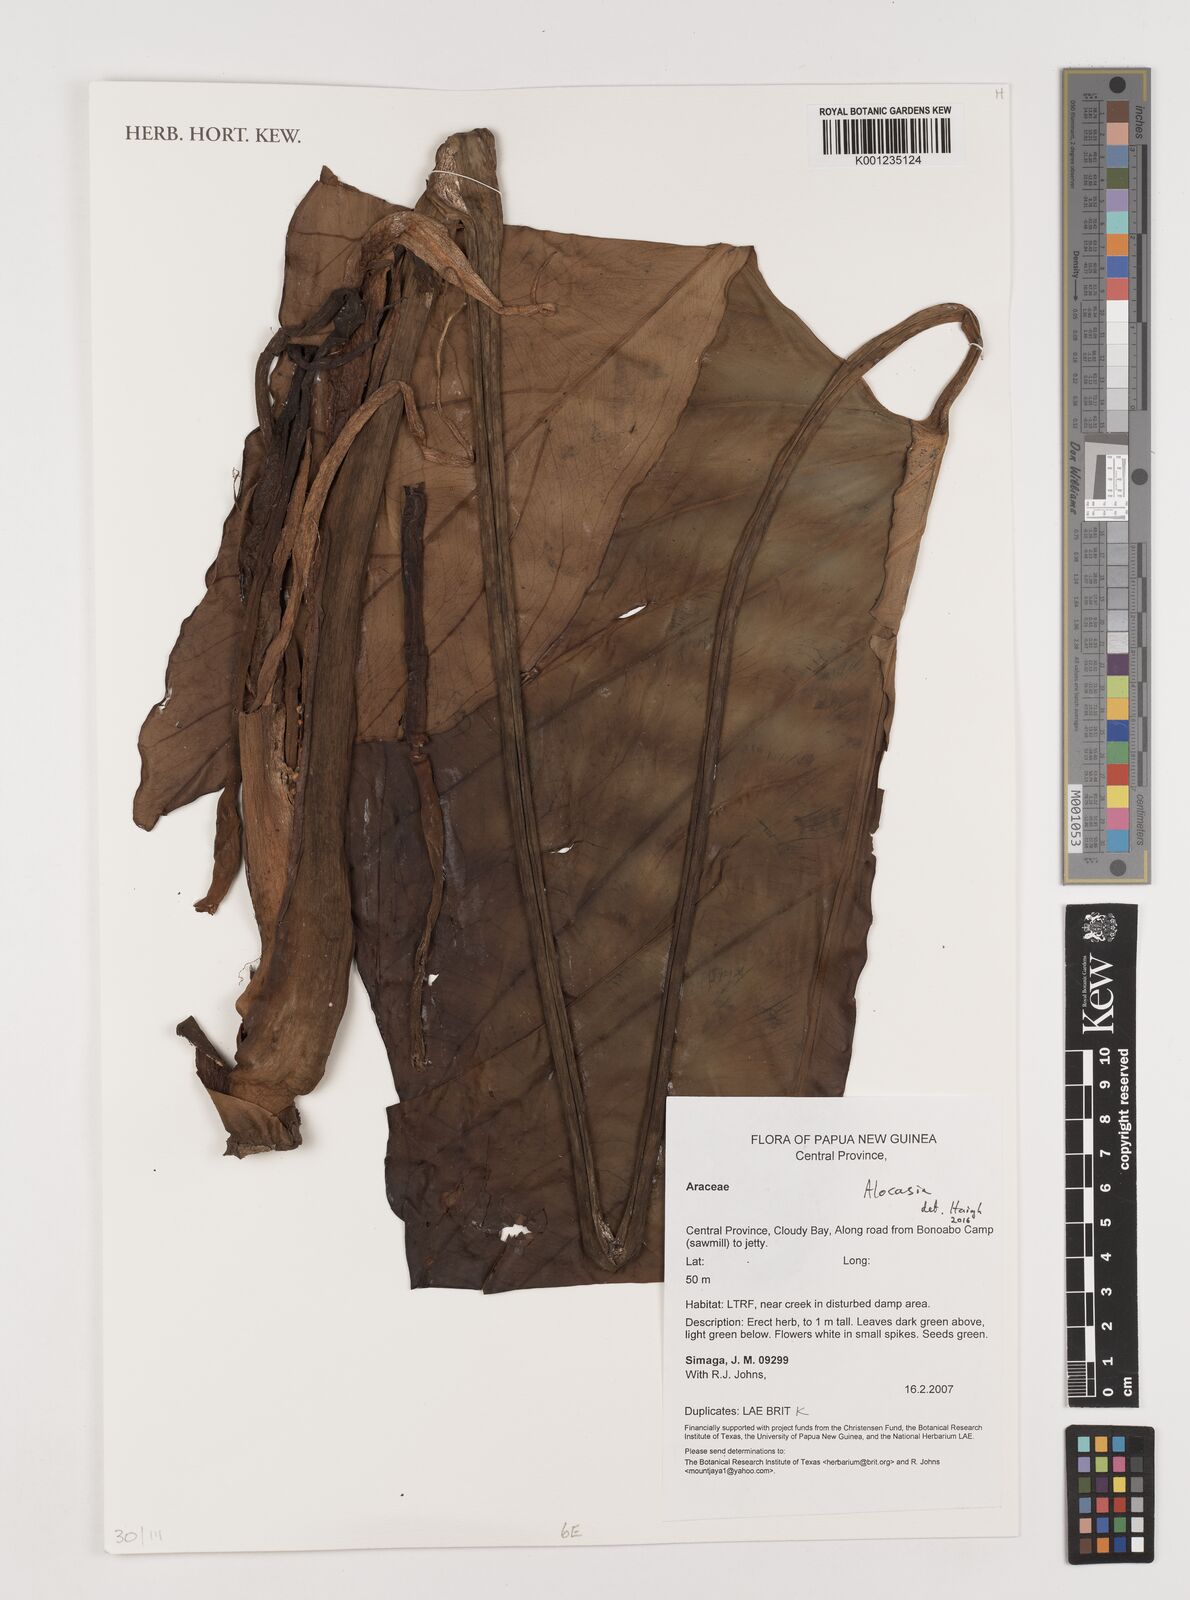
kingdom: Plantae
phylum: Tracheophyta
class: Liliopsida
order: Alismatales
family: Araceae
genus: Alocasia
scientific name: Alocasia
